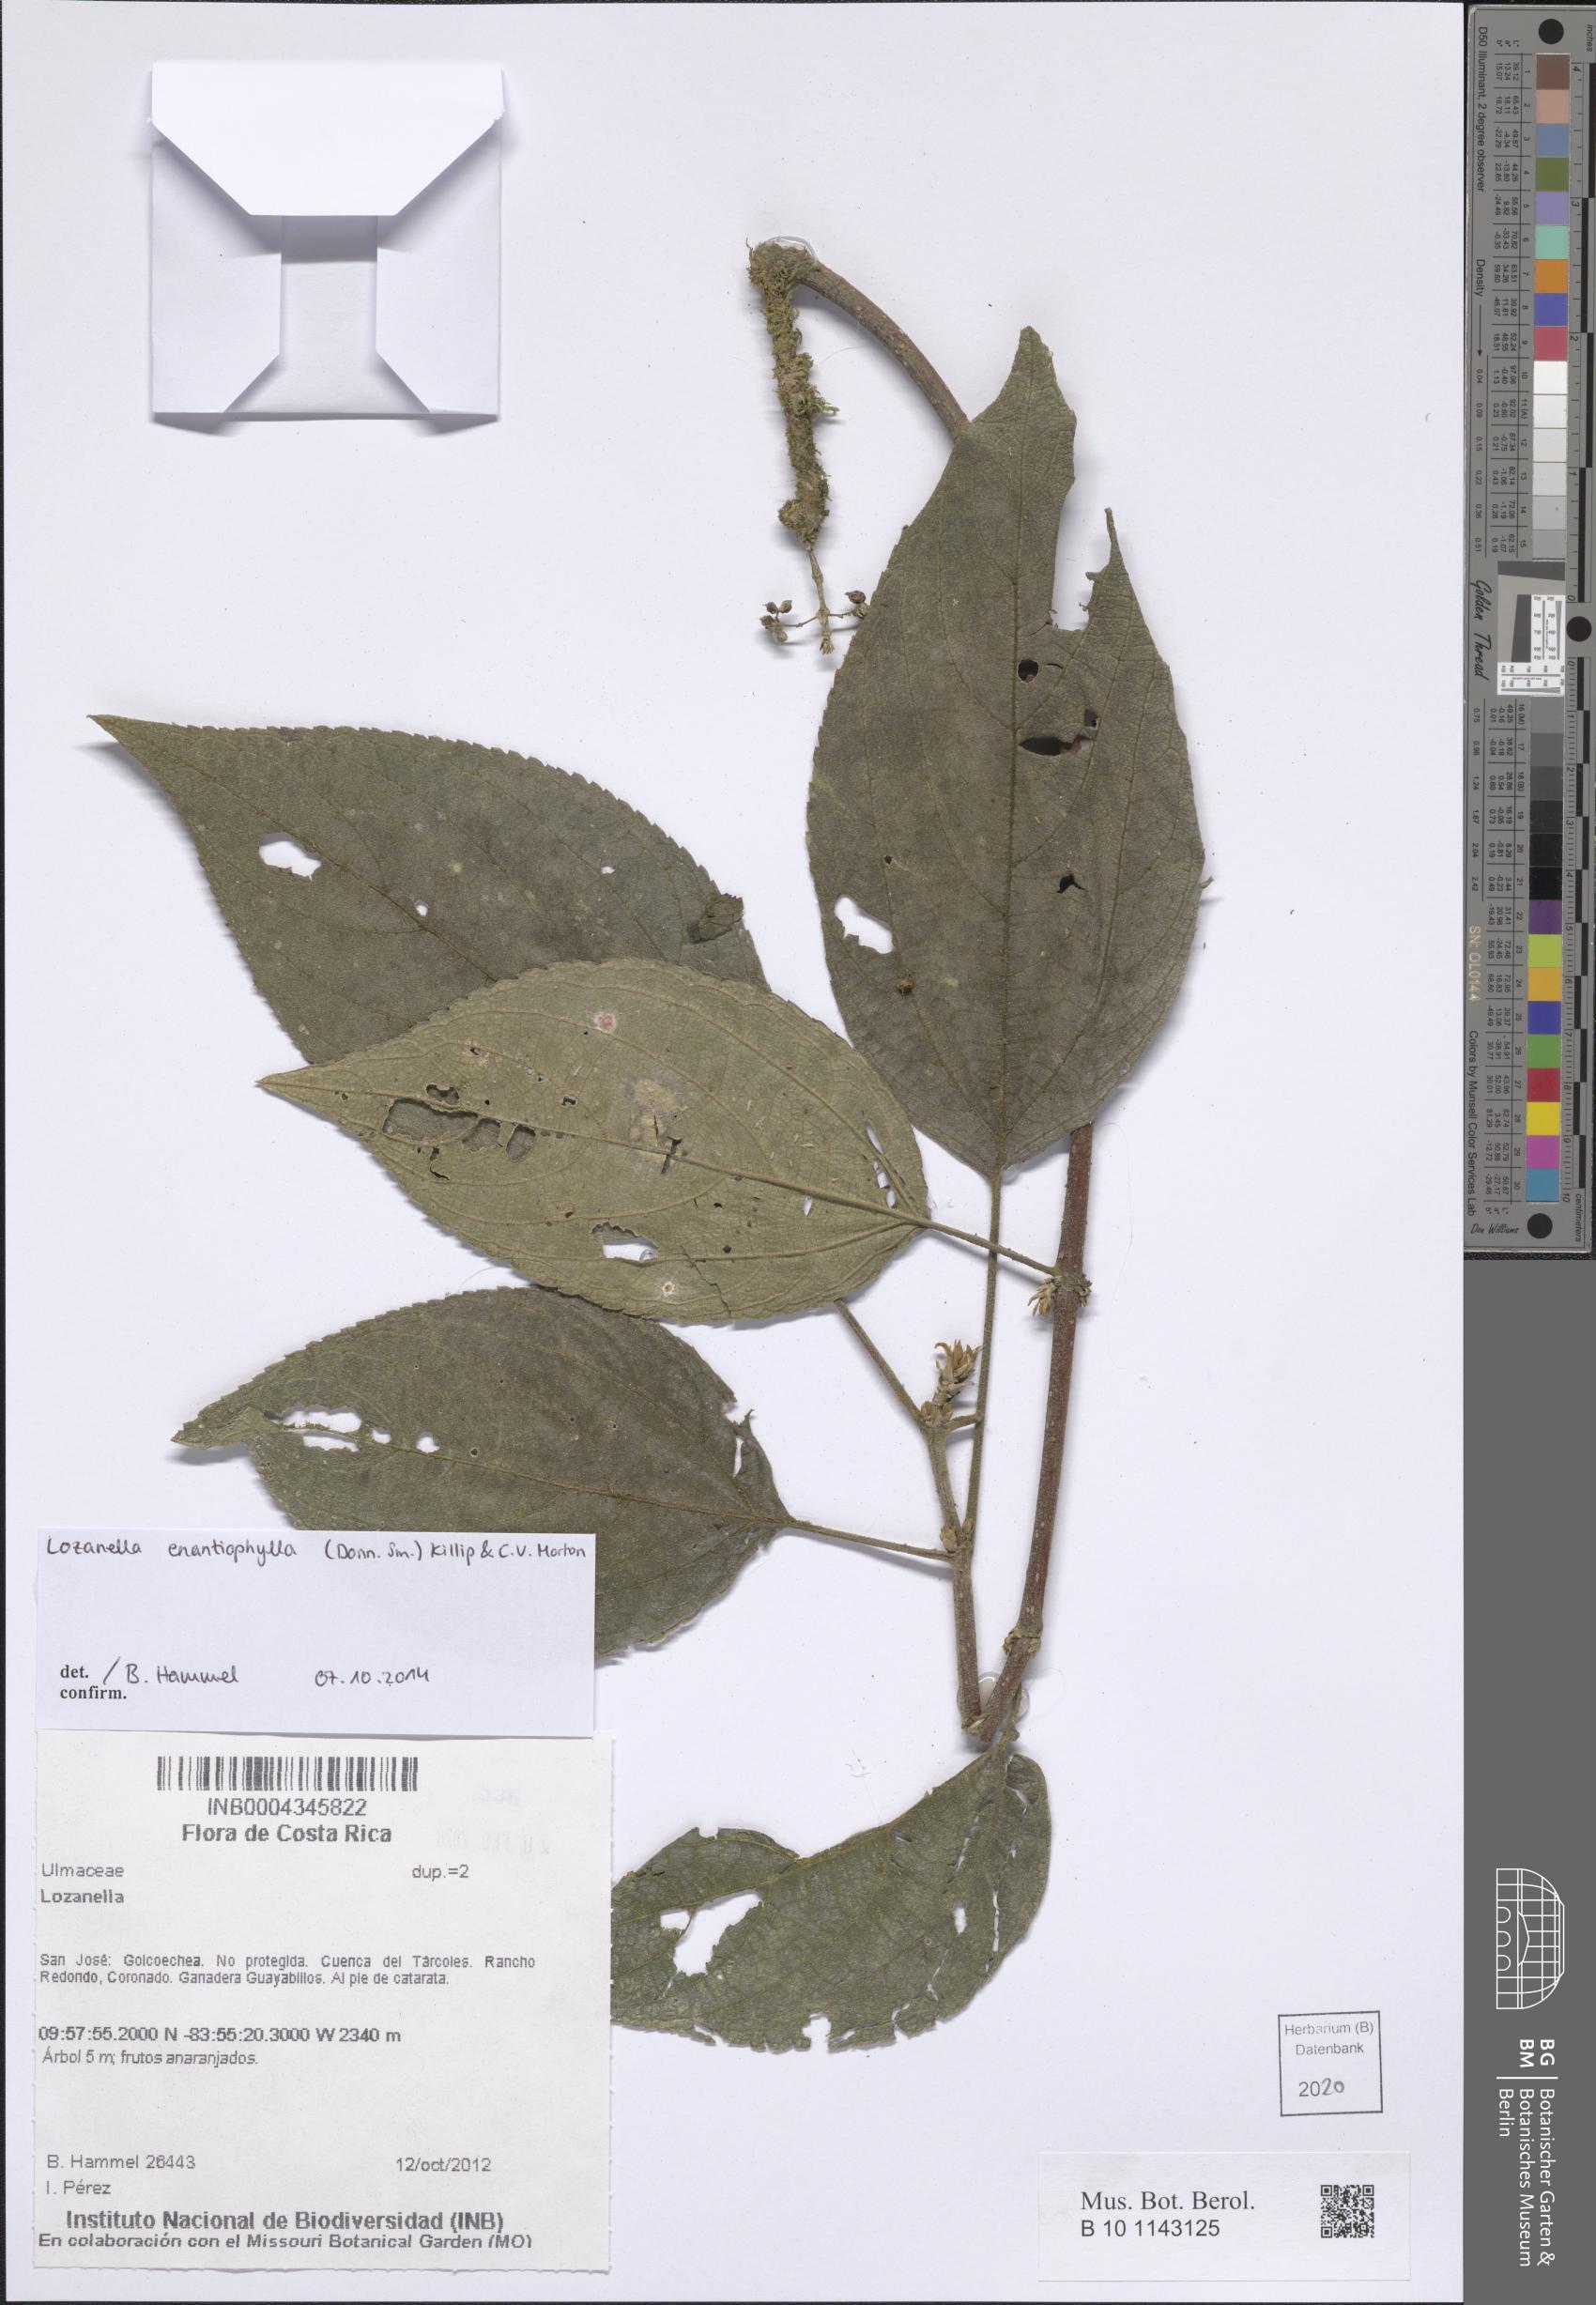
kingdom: Plantae
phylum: Tracheophyta
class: Magnoliopsida
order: Rosales
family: Cannabaceae
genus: Lozanella
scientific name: Lozanella enantiophylla
